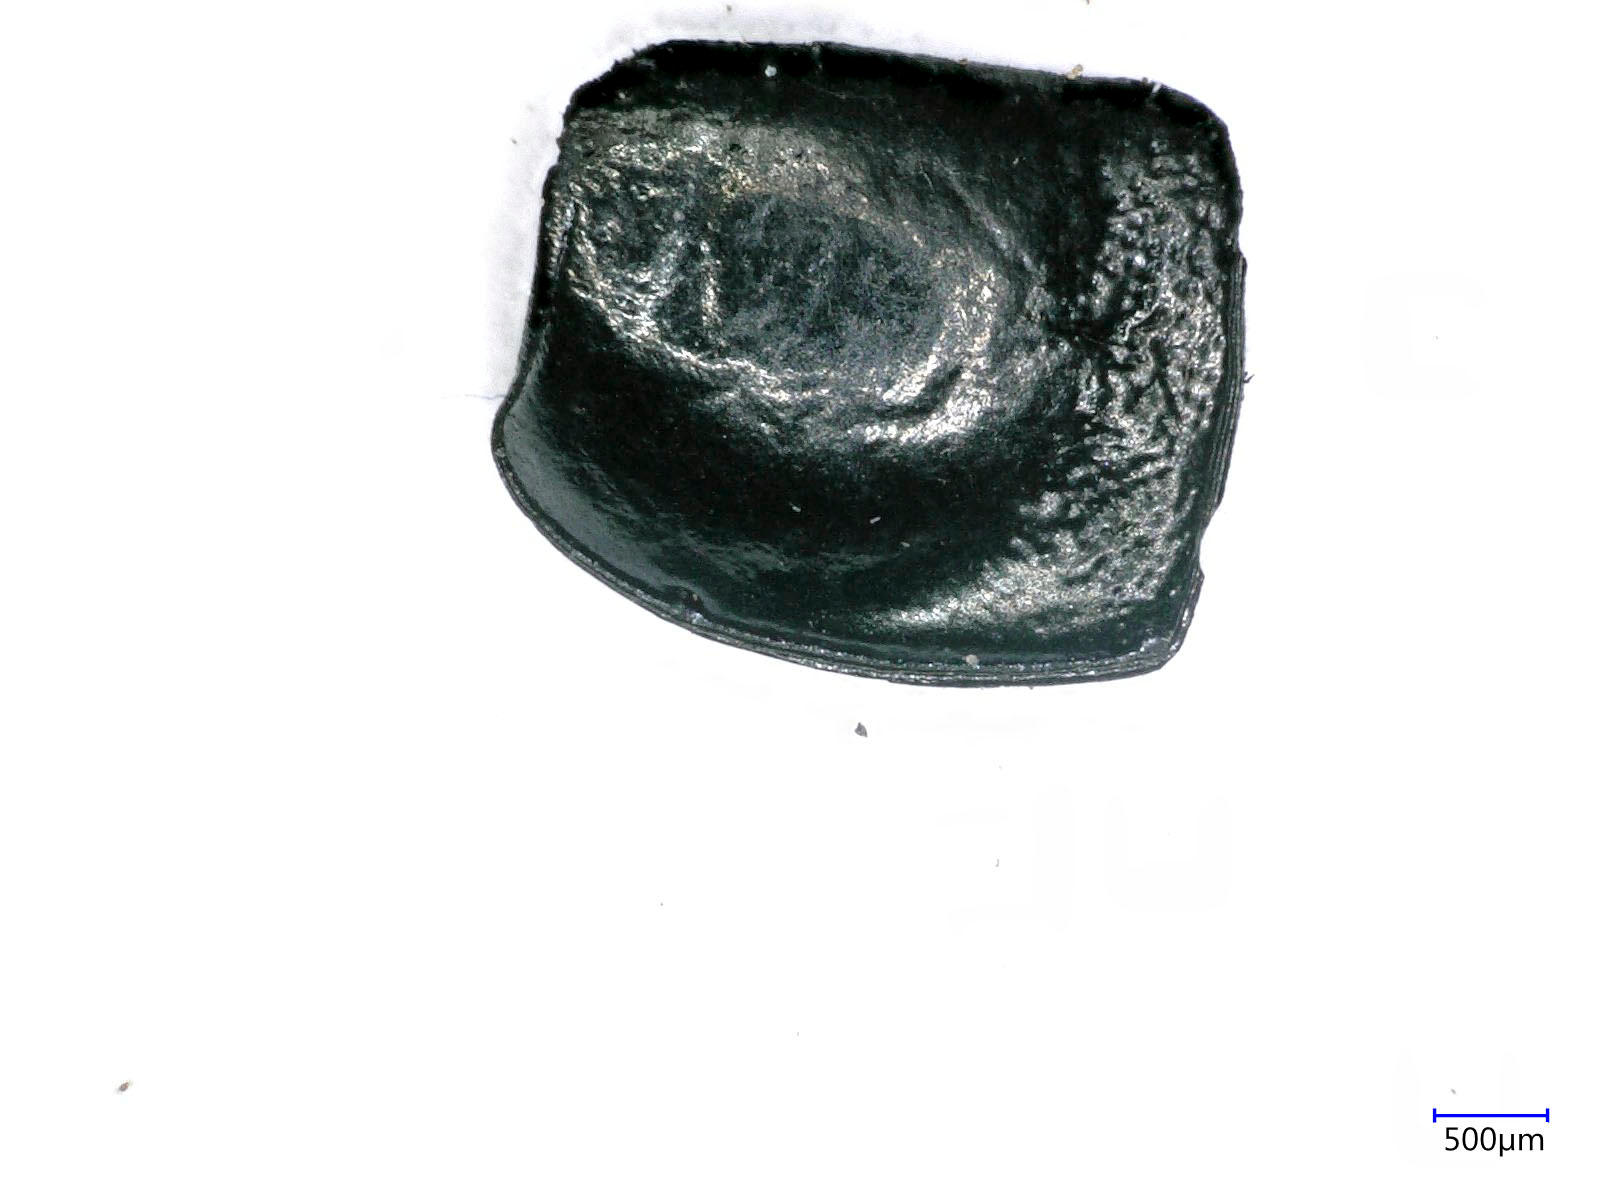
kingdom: Animalia
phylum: Arthropoda
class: Insecta
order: Coleoptera
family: Carabidae
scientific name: Carabidae
